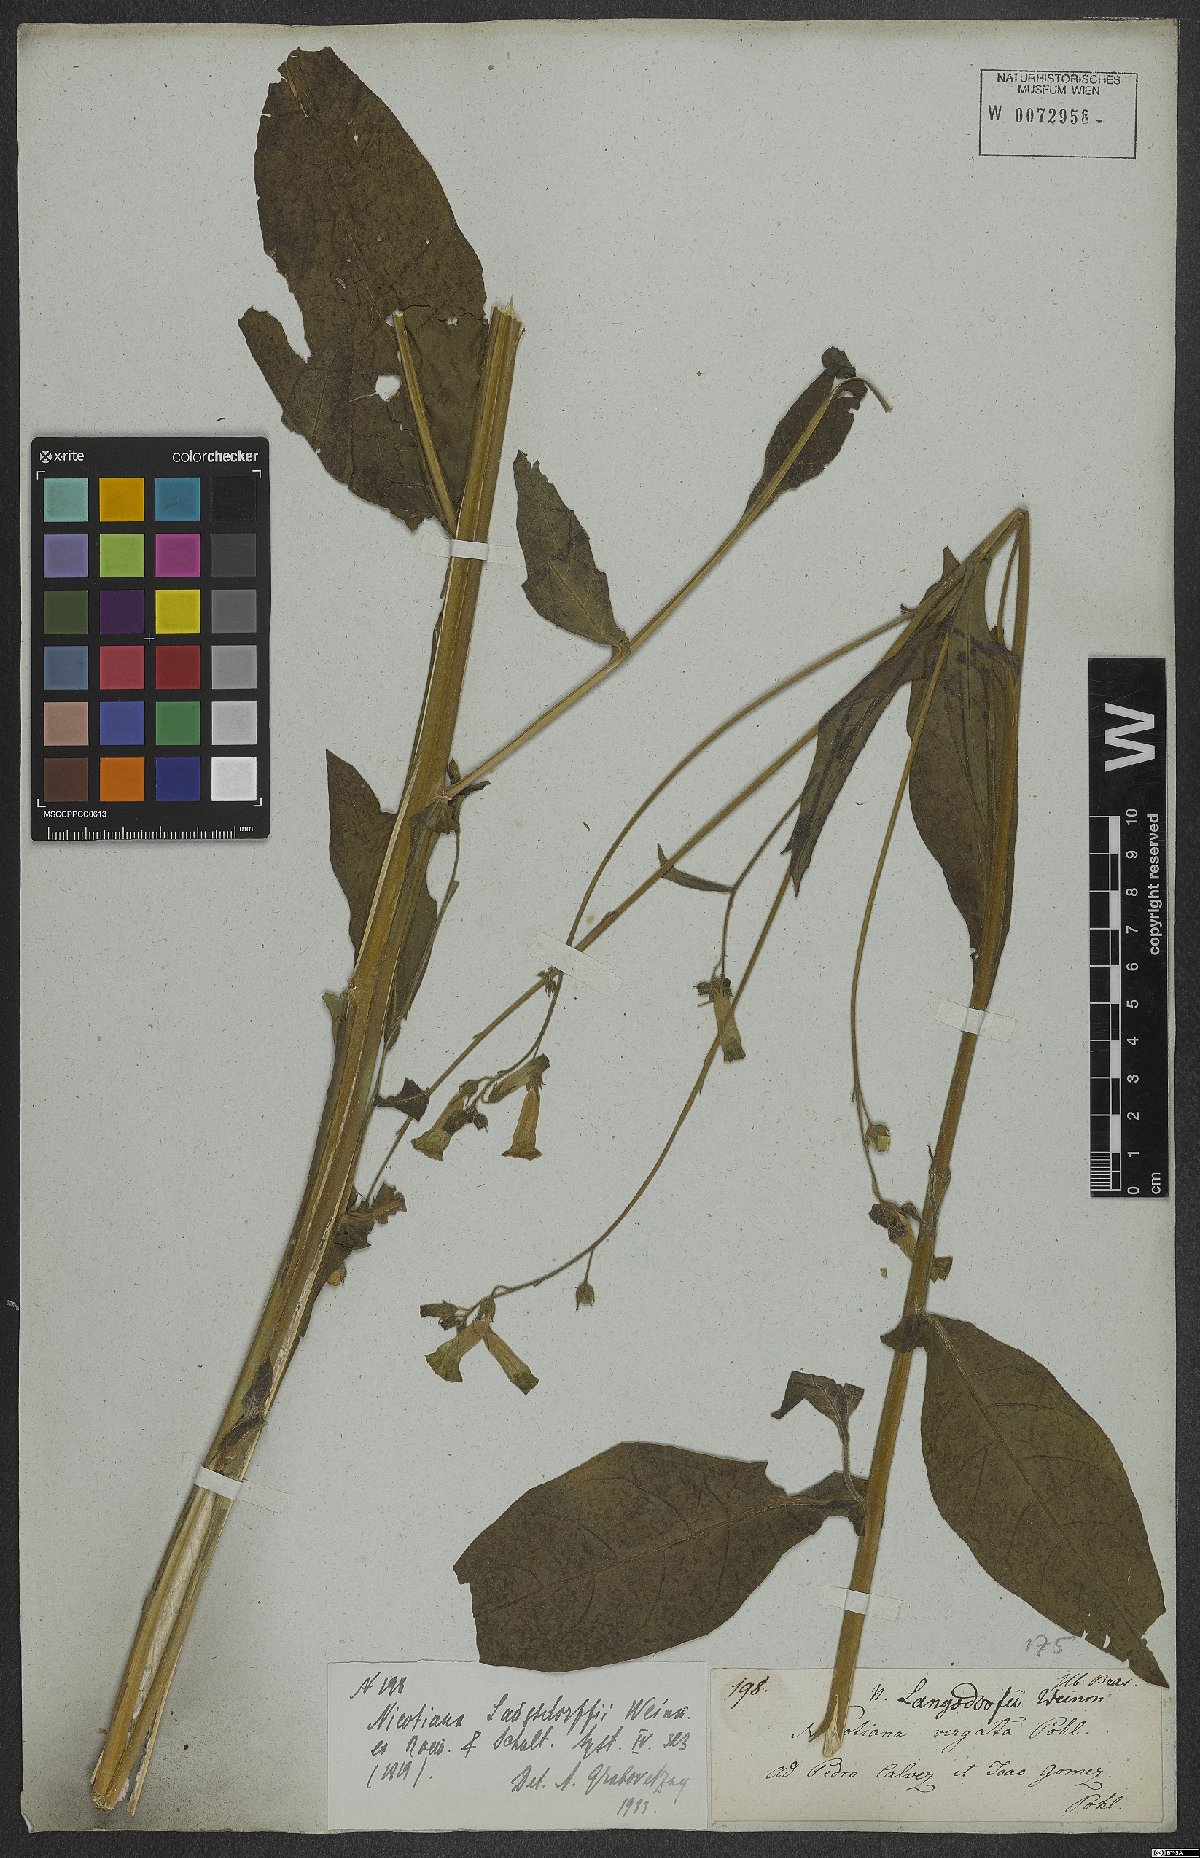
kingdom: Plantae
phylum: Tracheophyta
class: Magnoliopsida
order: Solanales
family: Solanaceae
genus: Nicotiana
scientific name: Nicotiana langsdorffii
